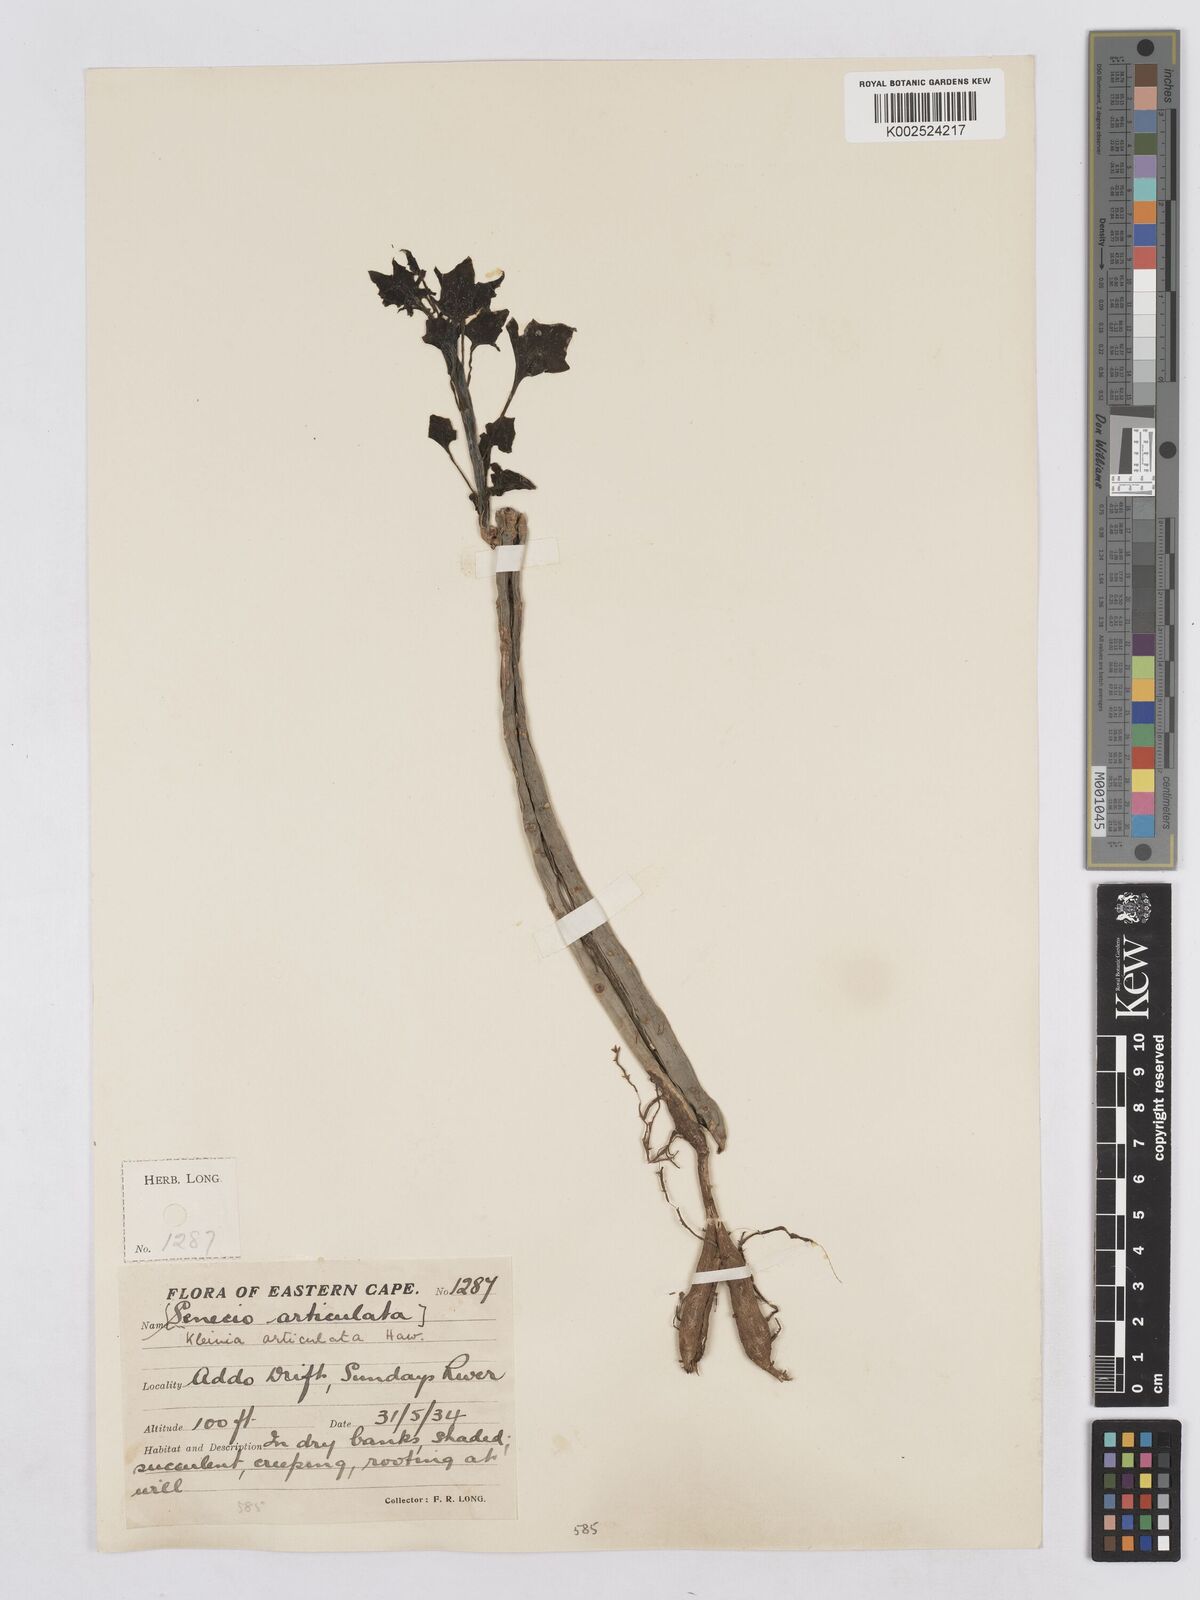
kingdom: Plantae
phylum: Tracheophyta
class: Magnoliopsida
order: Asterales
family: Asteraceae
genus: Curio
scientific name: Curio articulatus
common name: Candleplant
